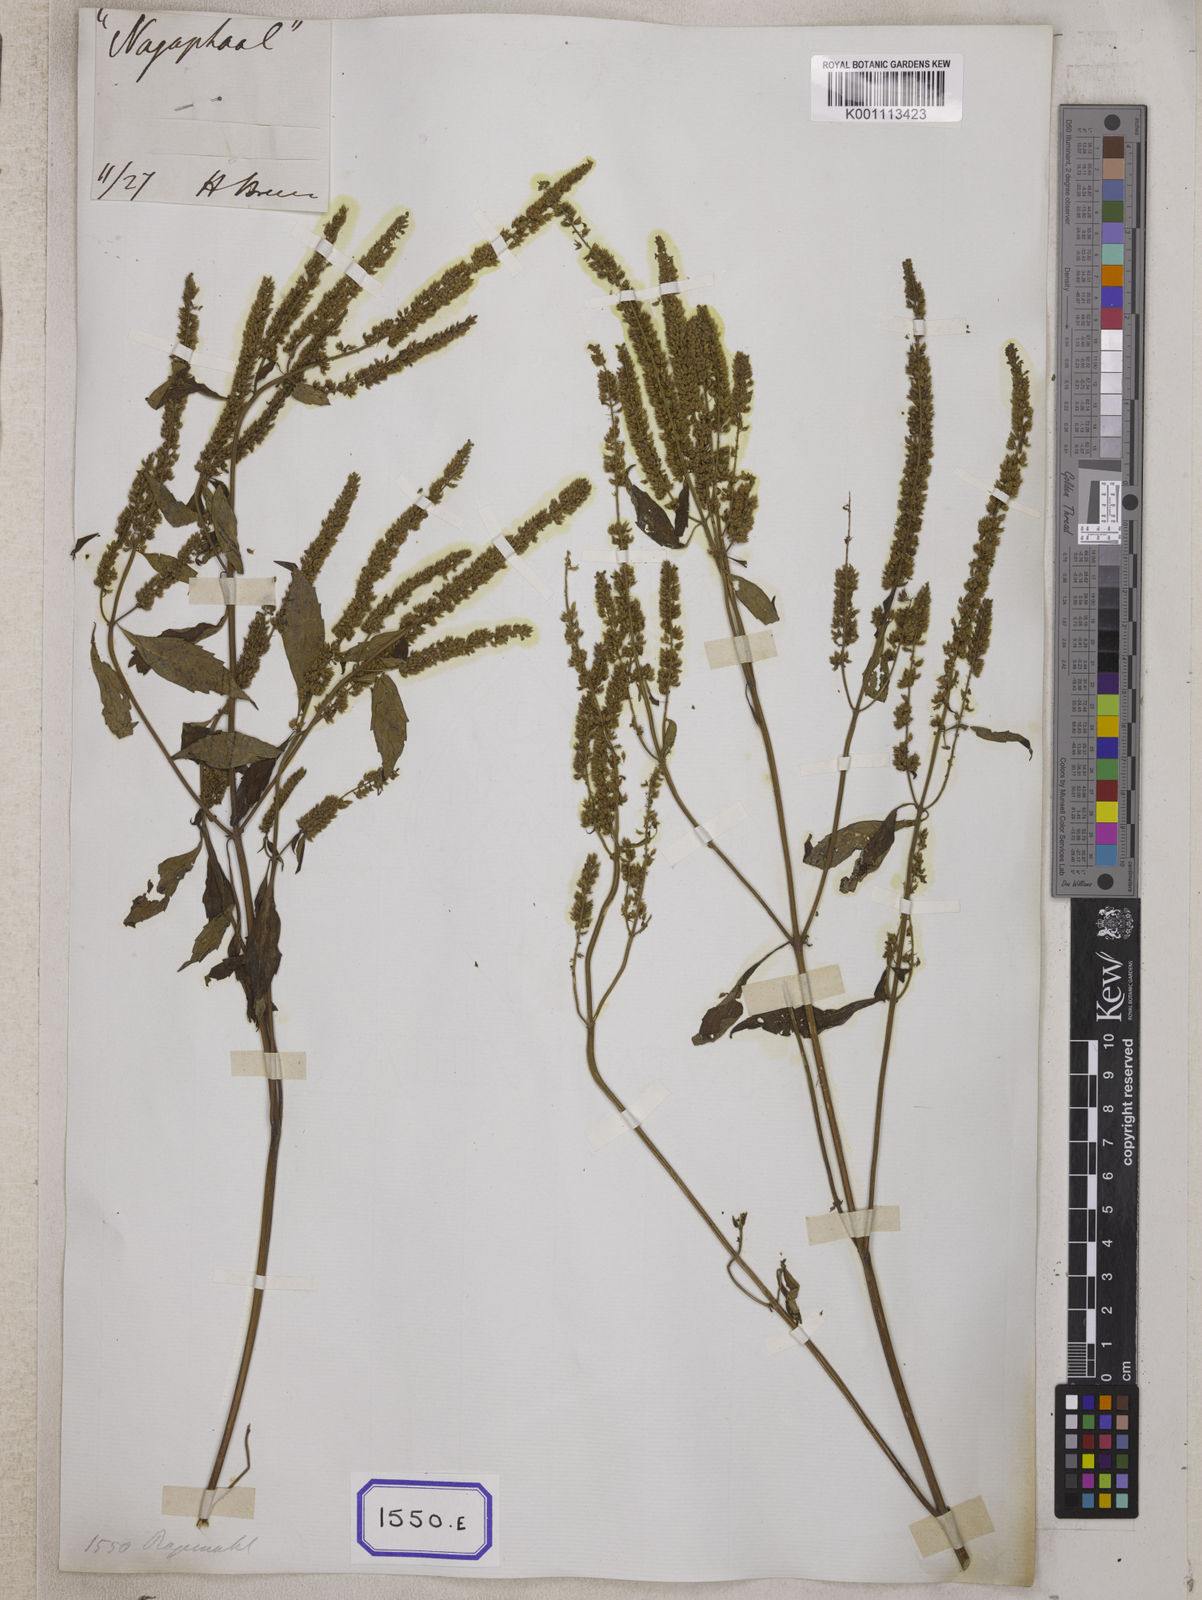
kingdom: Plantae
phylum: Tracheophyta
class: Magnoliopsida
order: Lamiales
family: Lamiaceae
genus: Elsholtzia
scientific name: Elsholtzia blanda
